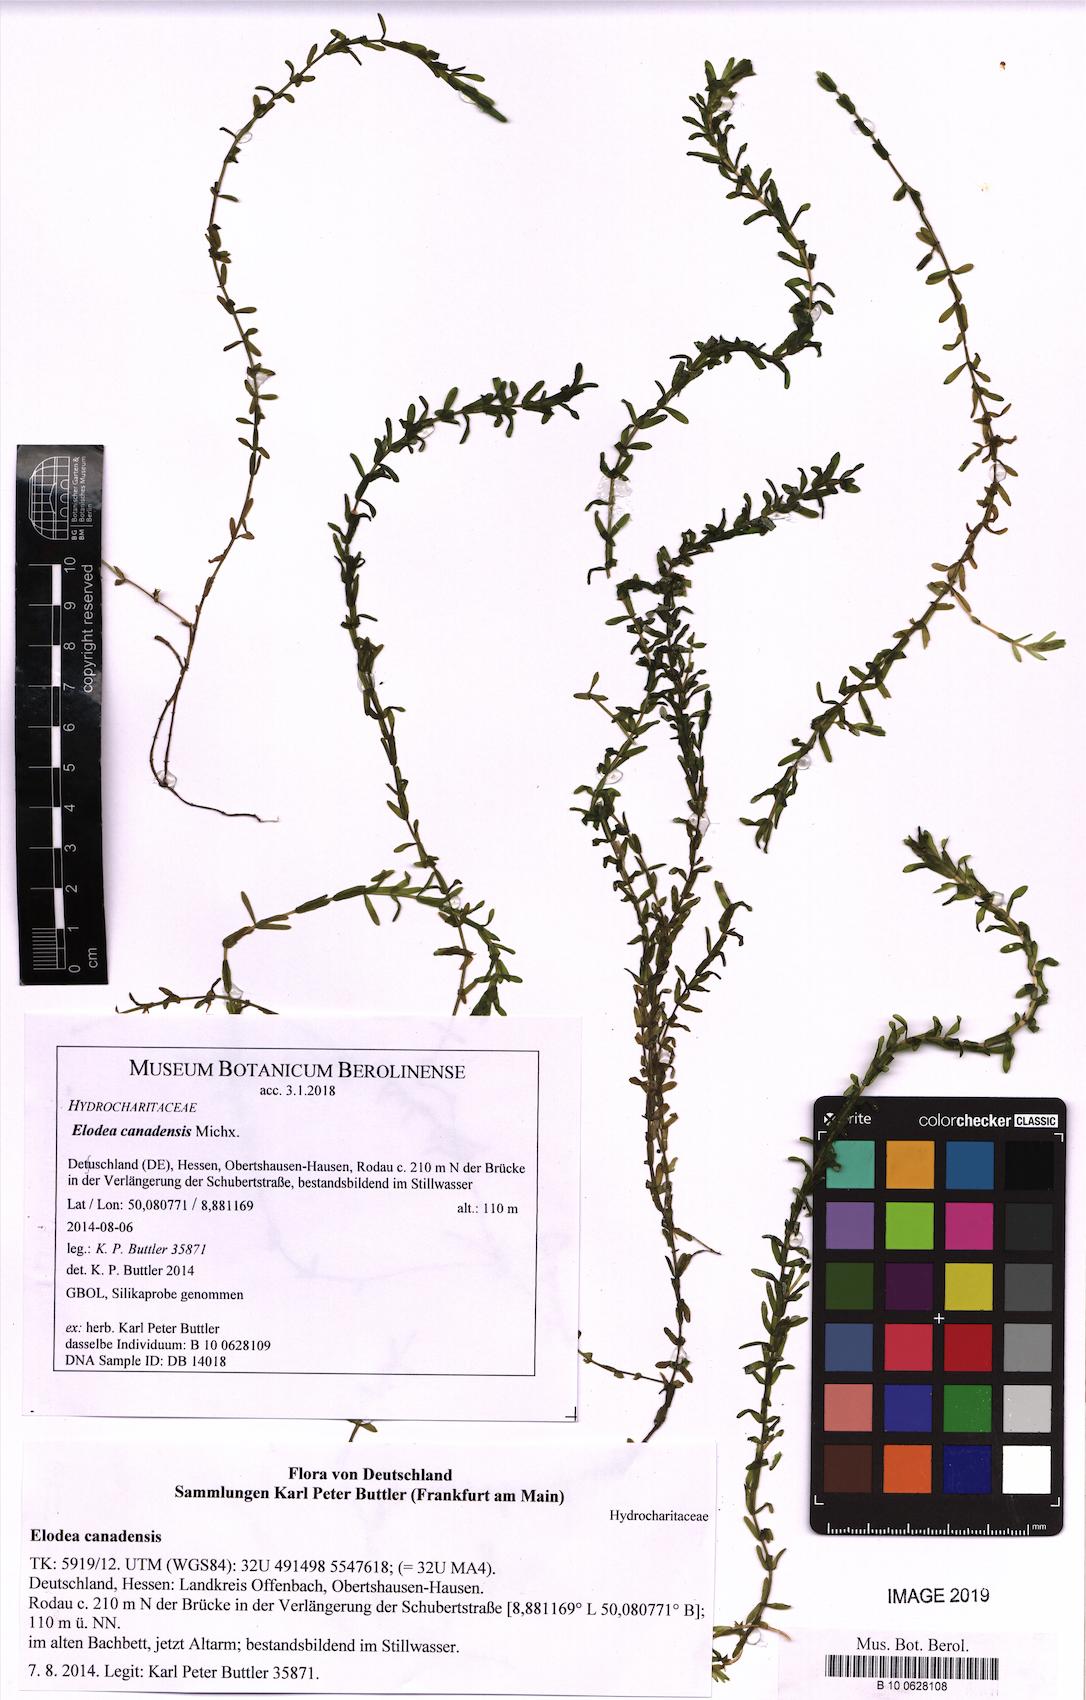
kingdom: Plantae
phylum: Tracheophyta
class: Liliopsida
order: Alismatales
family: Hydrocharitaceae
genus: Elodea
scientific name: Elodea canadensis
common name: Canadian waterweed
